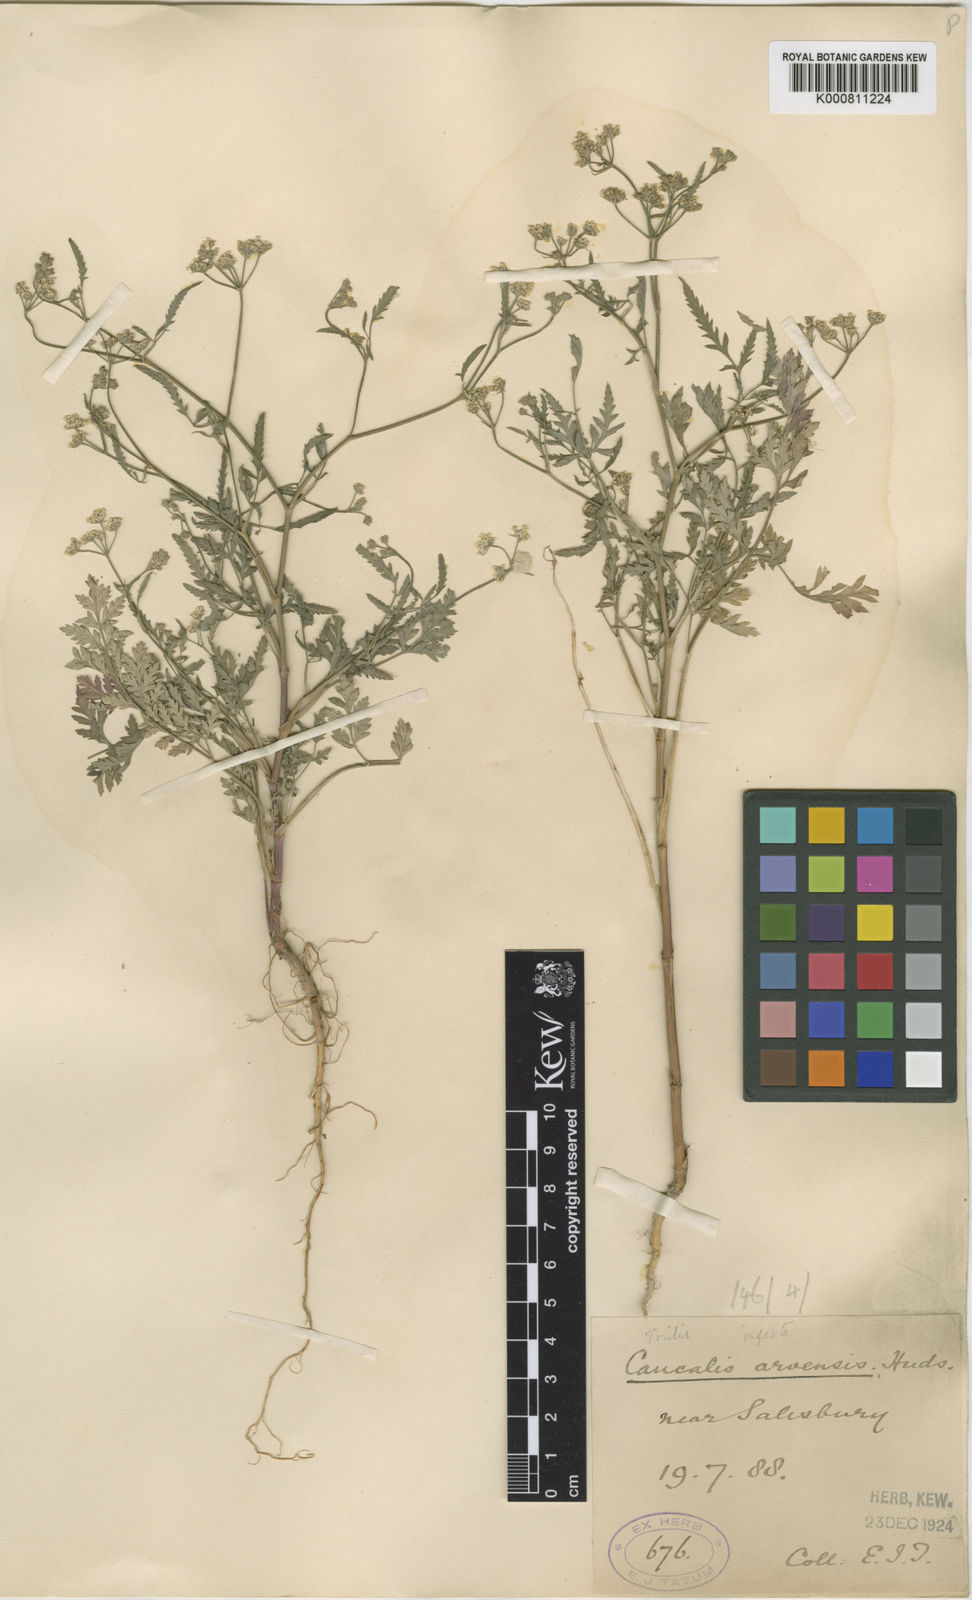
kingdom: Plantae
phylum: Tracheophyta
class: Magnoliopsida
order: Apiales
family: Apiaceae
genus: Torilis
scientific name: Torilis arvensis
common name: Spreading hedge-parsley
